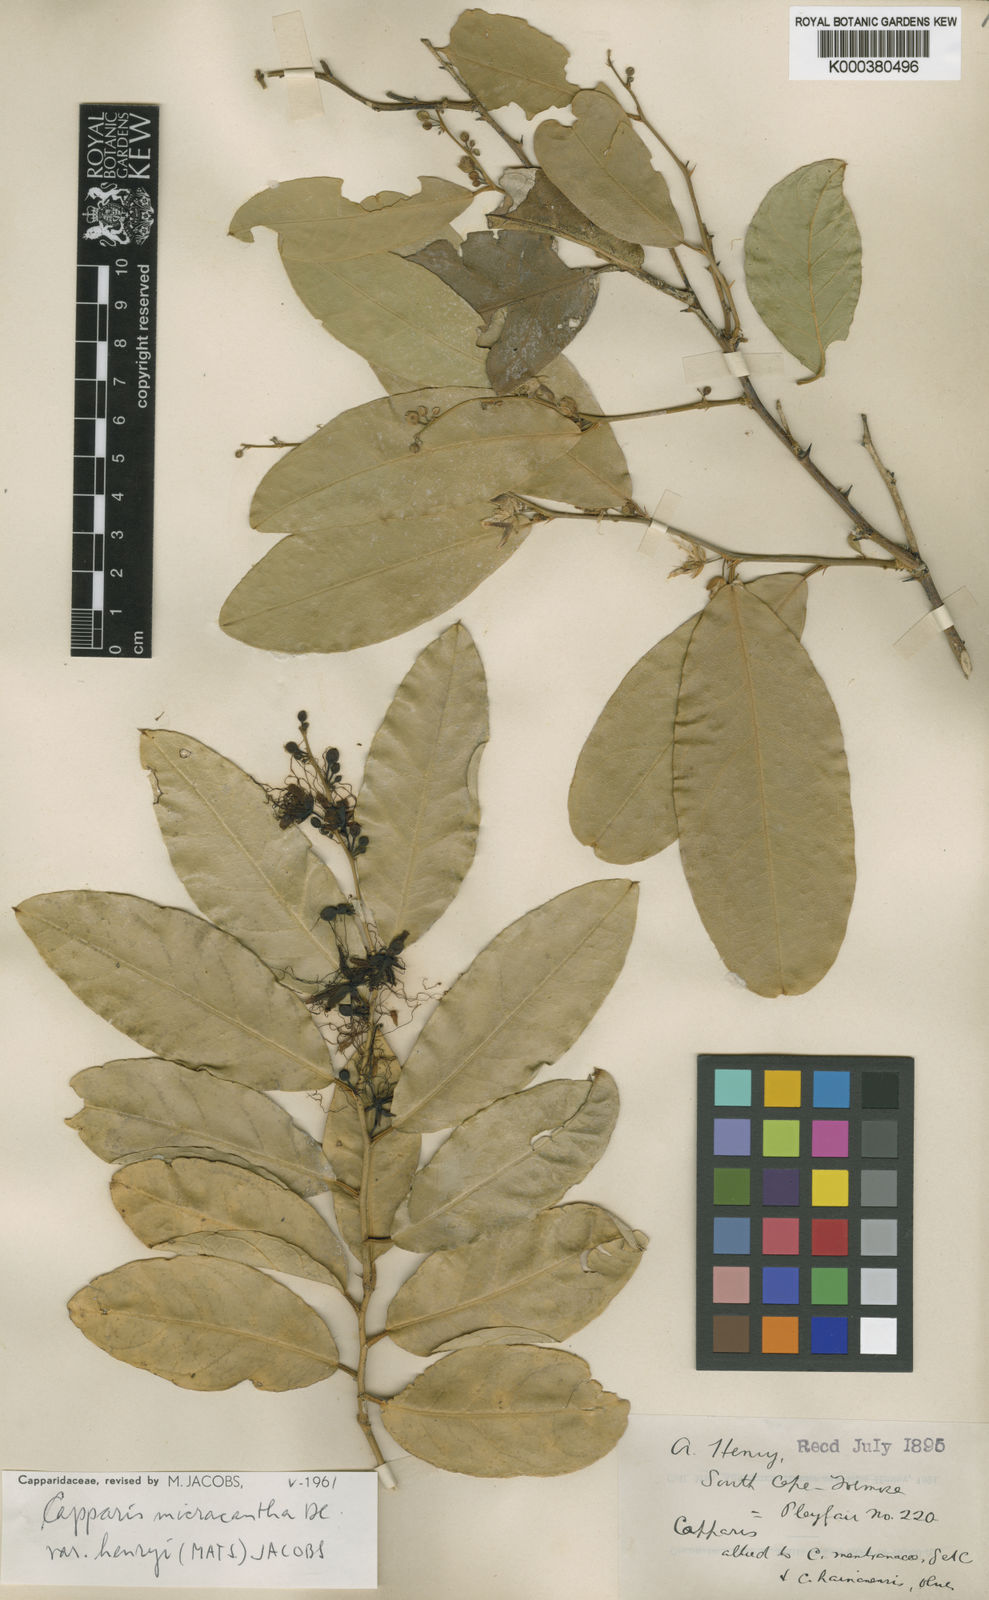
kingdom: Plantae
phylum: Tracheophyta
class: Magnoliopsida
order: Brassicales
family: Capparaceae
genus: Capparis
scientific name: Capparis
